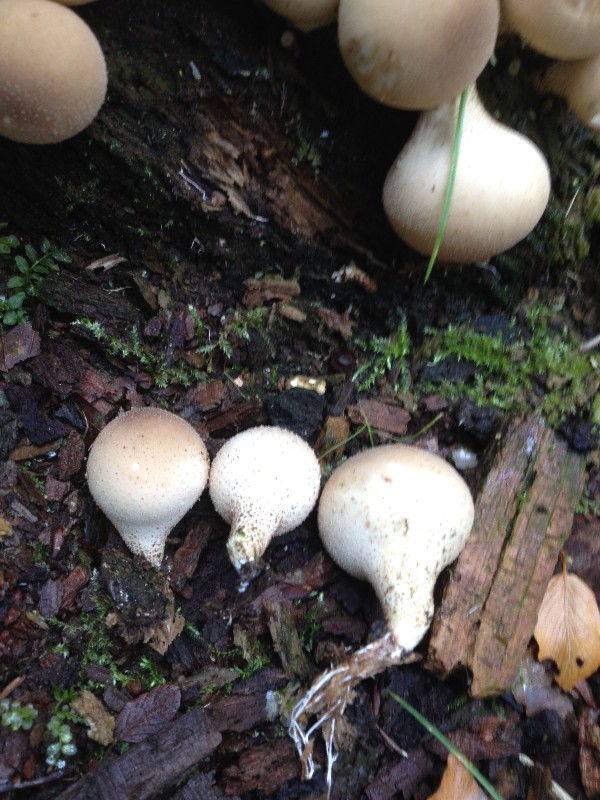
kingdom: Fungi
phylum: Basidiomycota
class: Agaricomycetes
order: Agaricales
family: Lycoperdaceae
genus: Apioperdon
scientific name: Apioperdon pyriforme
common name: pære-støvbold
